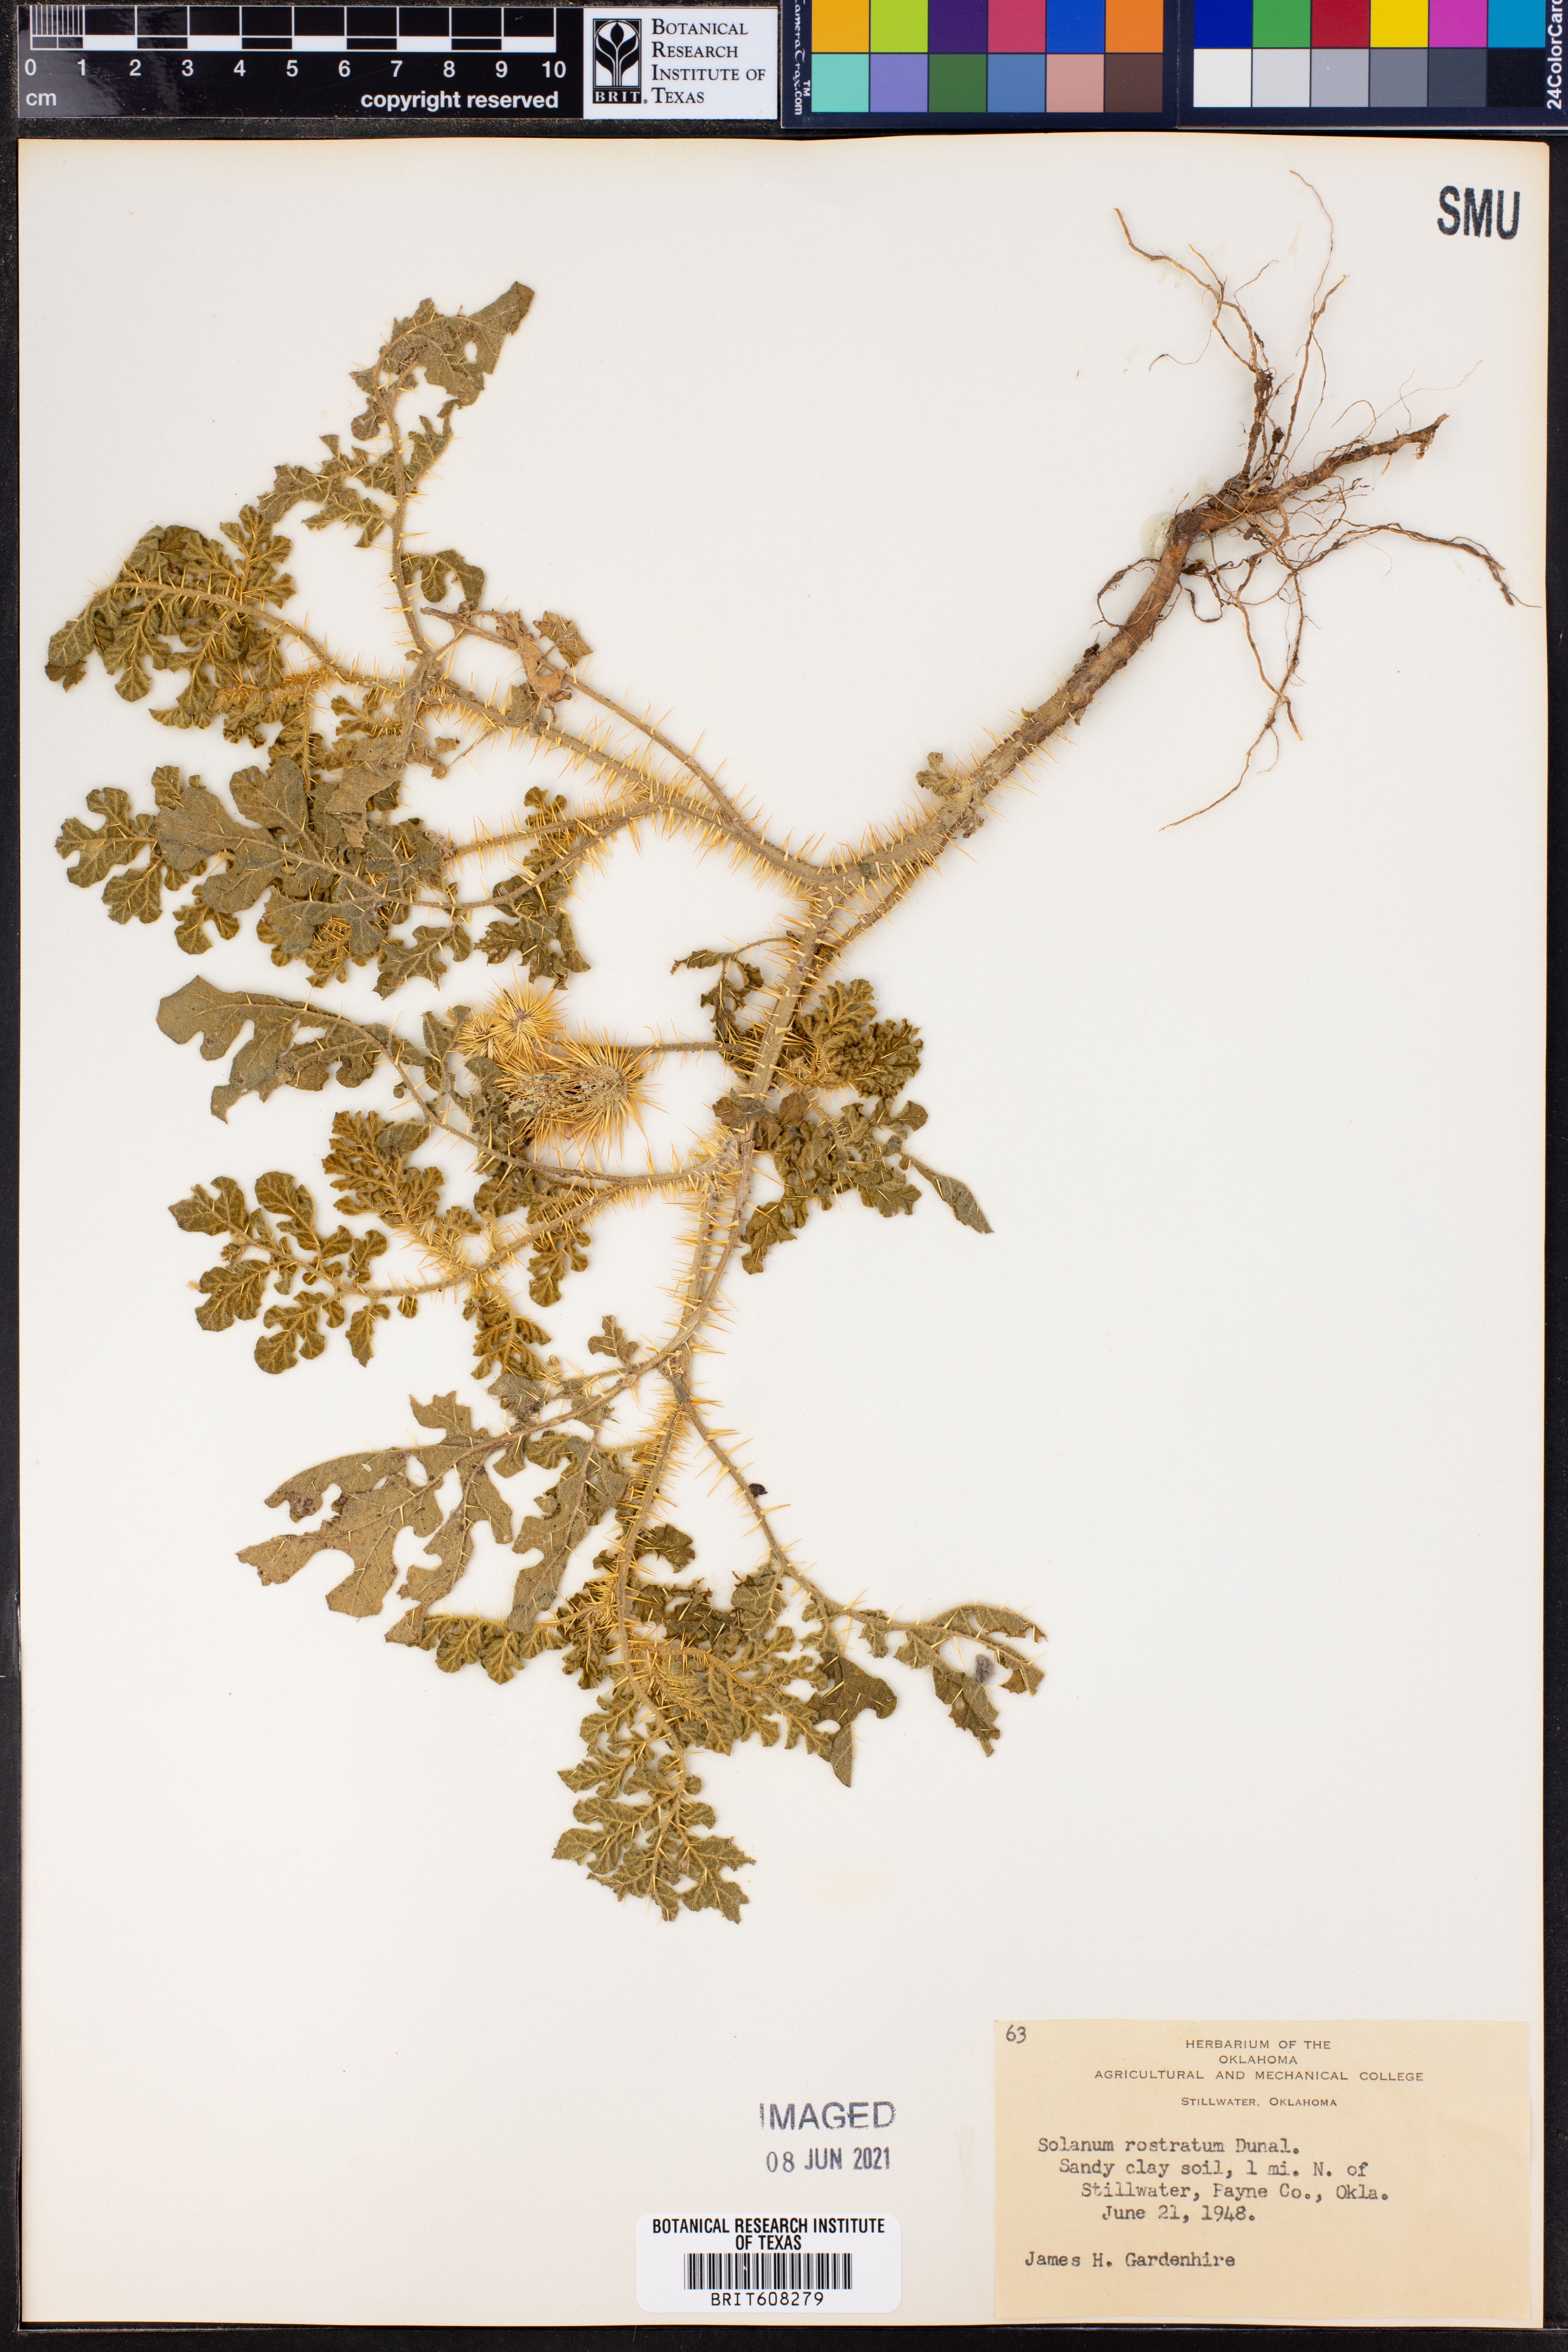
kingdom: Plantae
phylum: Tracheophyta
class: Magnoliopsida
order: Solanales
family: Solanaceae
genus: Solanum
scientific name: Solanum angustifolium
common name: Buffalobur nightshade
